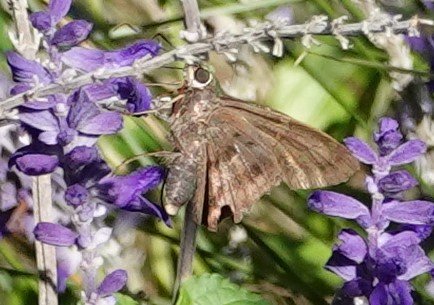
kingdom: Animalia
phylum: Arthropoda
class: Insecta
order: Lepidoptera
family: Hesperiidae
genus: Urbanus
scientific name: Urbanus proteus
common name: Long-tailed Skipper
